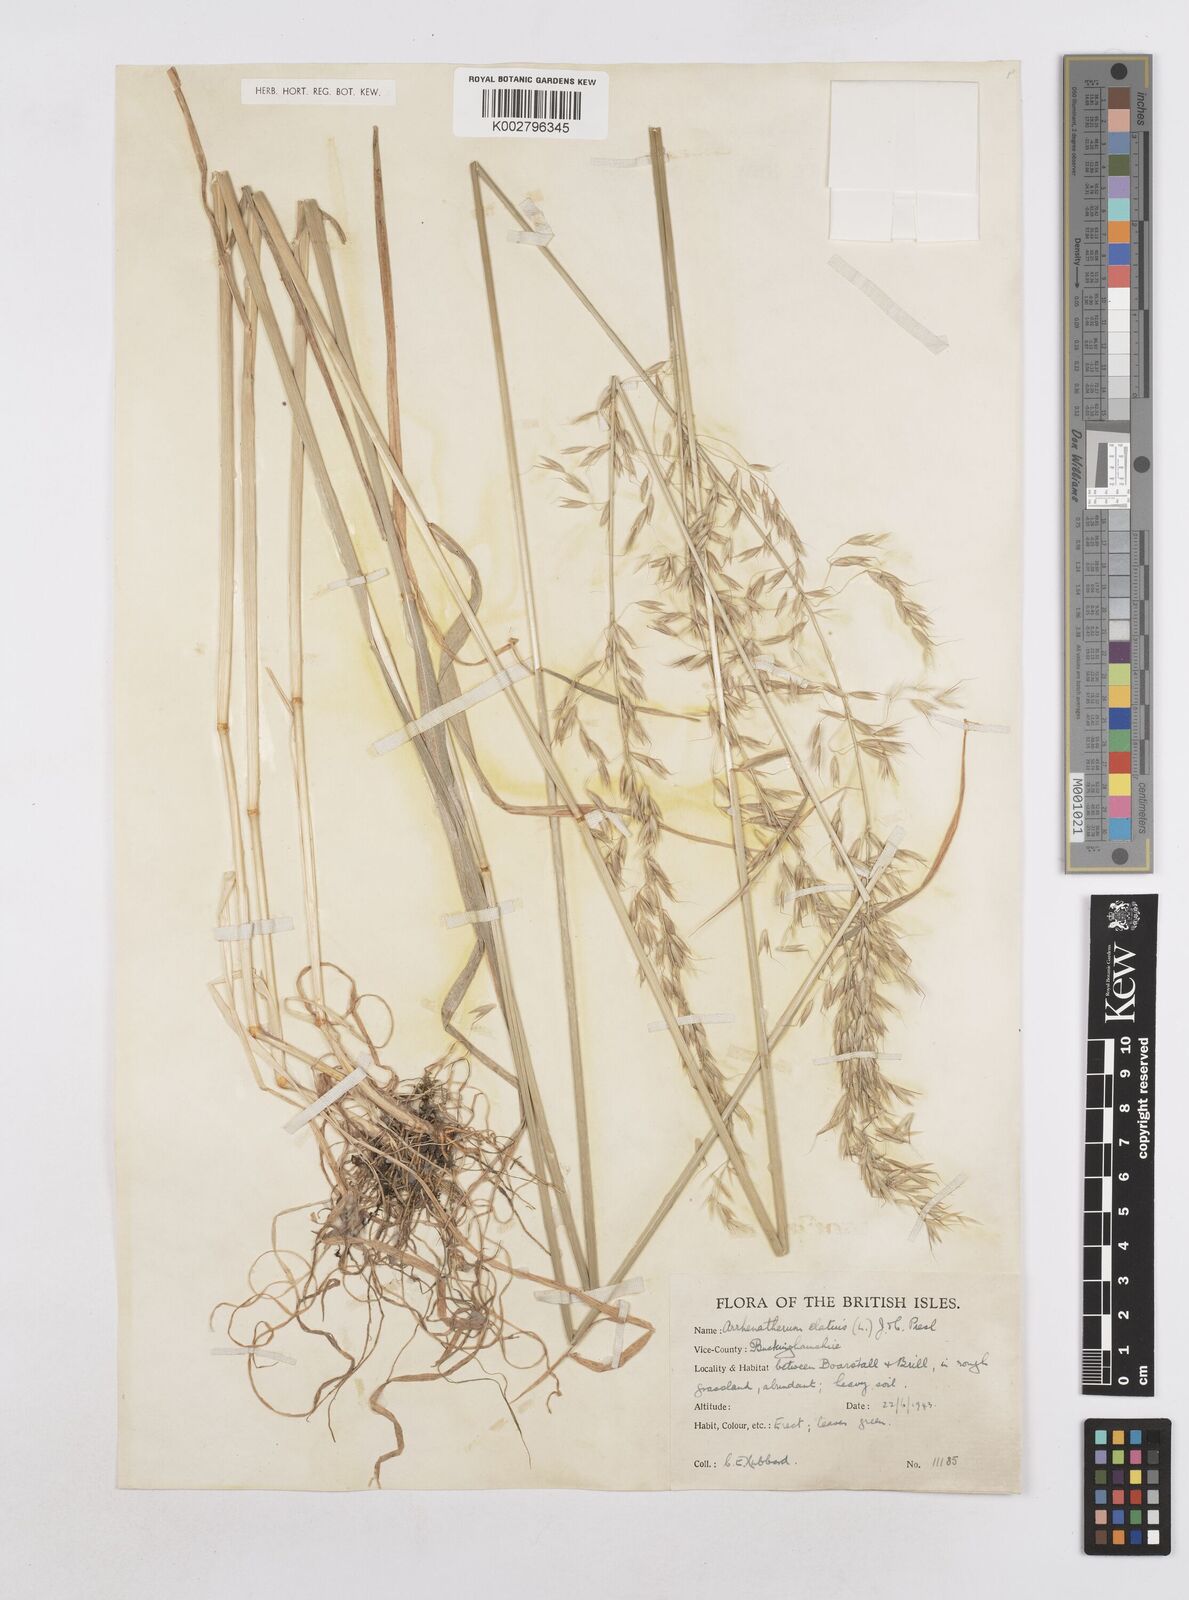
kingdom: Plantae
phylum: Tracheophyta
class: Liliopsida
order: Poales
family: Poaceae
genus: Arrhenatherum
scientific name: Arrhenatherum elatius
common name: Tall oatgrass
